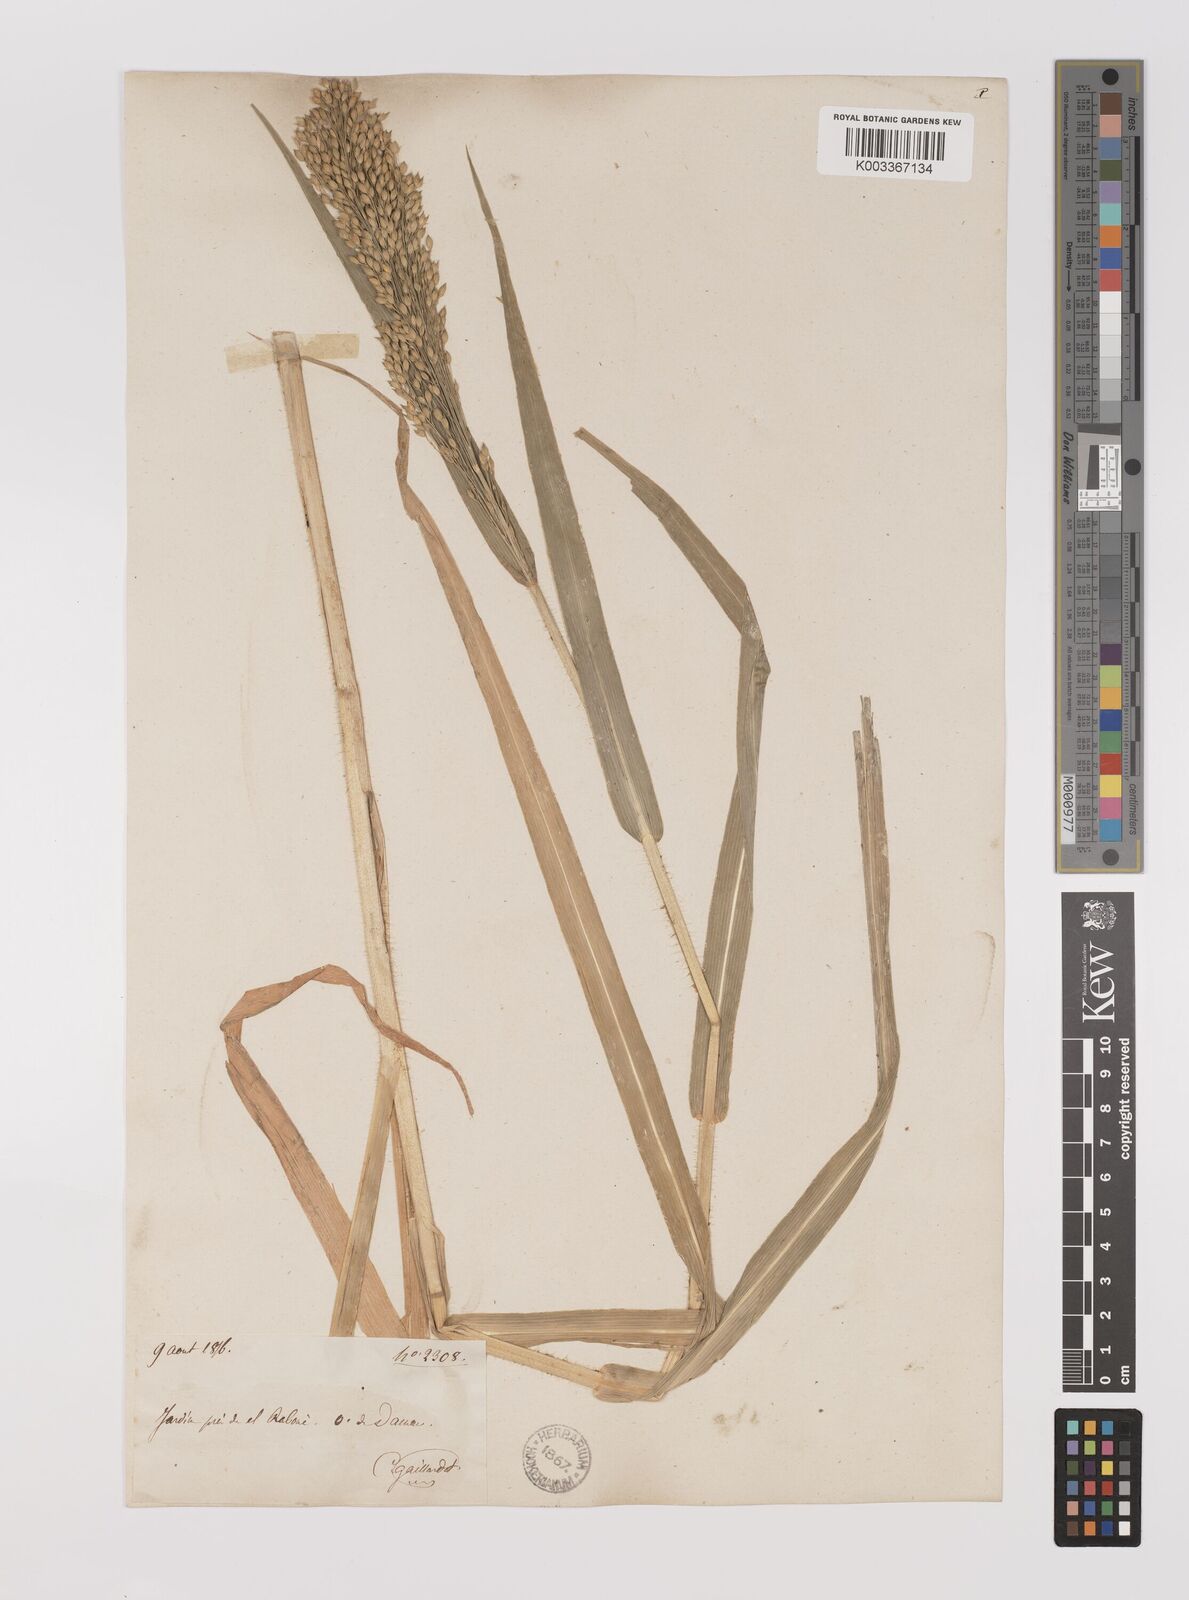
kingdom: Plantae
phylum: Tracheophyta
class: Liliopsida
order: Poales
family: Poaceae
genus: Panicum
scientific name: Panicum miliaceum
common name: Common millet
